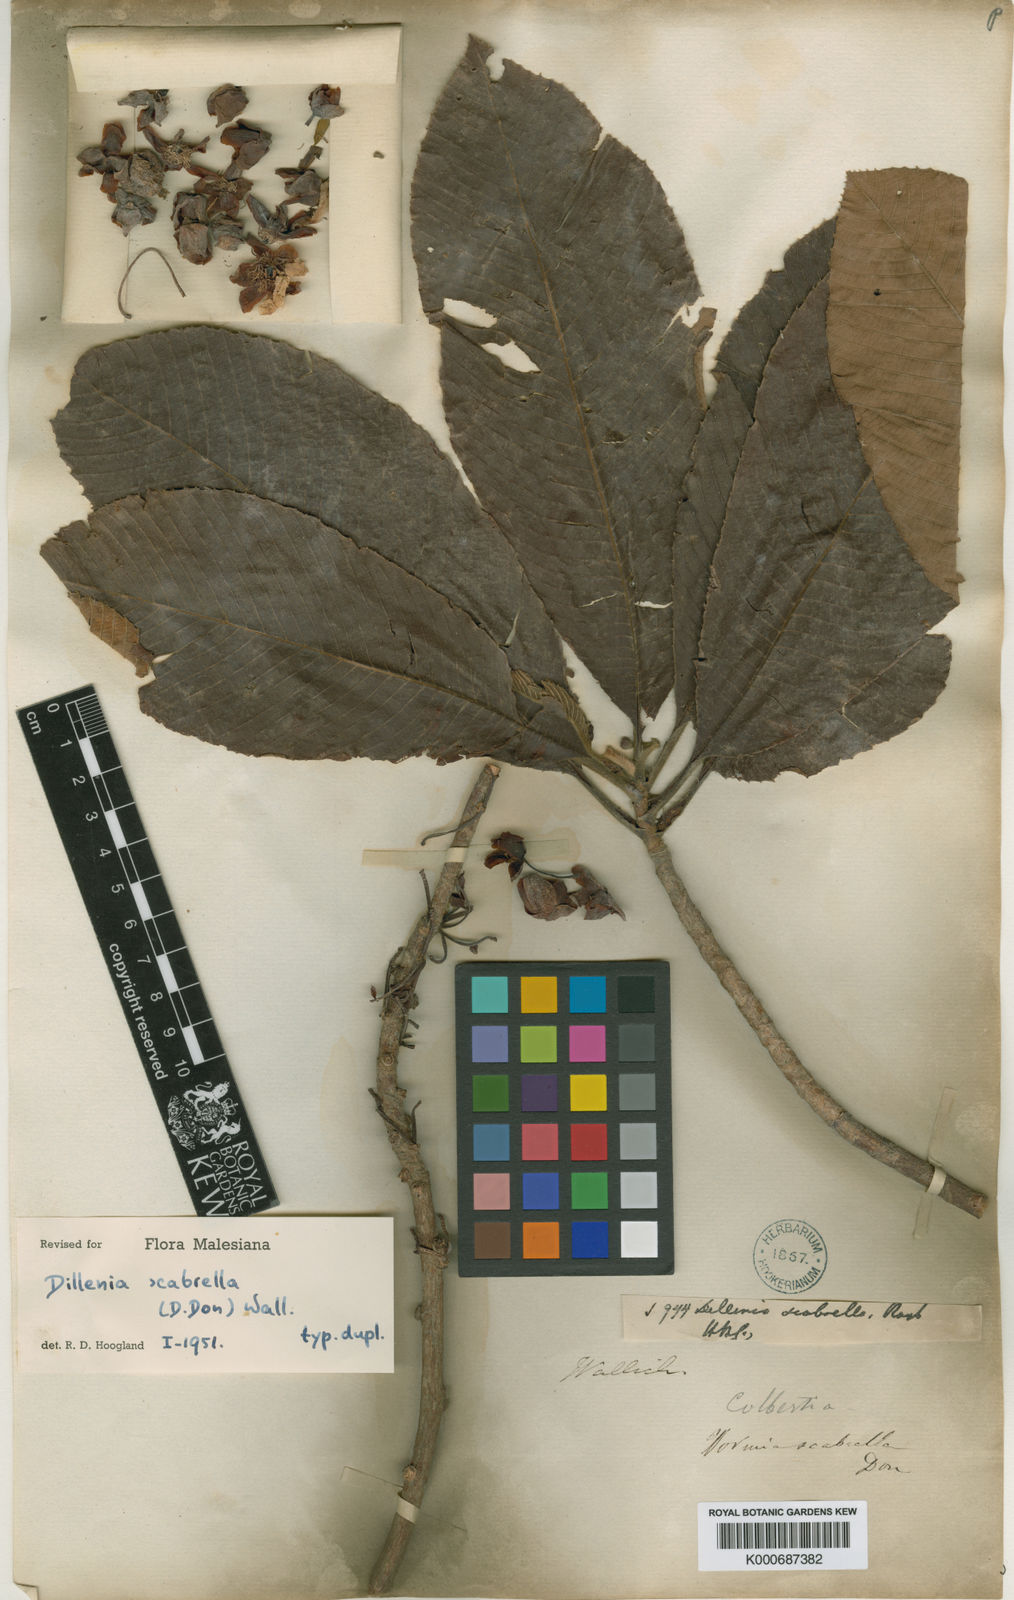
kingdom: Plantae
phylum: Tracheophyta
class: Magnoliopsida
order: Dilleniales
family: Dilleniaceae
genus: Dillenia
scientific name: Dillenia scabrella
